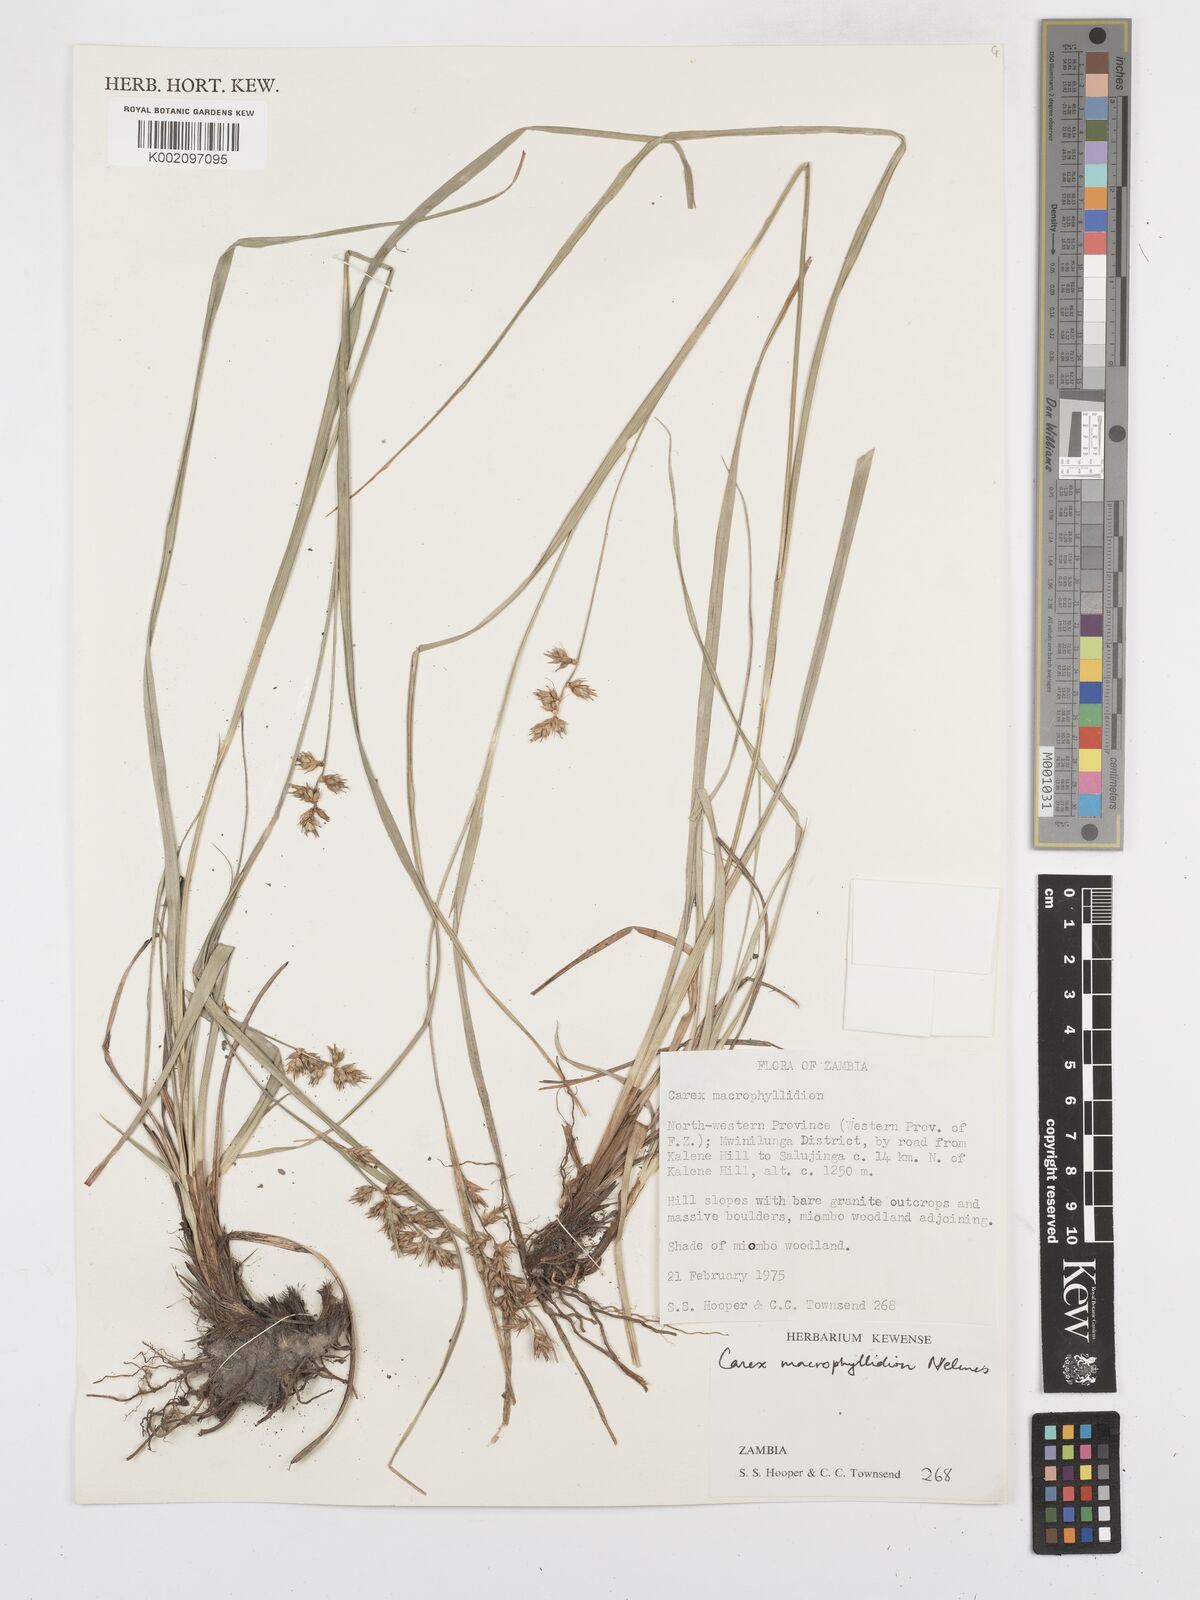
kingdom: Plantae
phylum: Tracheophyta
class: Liliopsida
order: Poales
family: Cyperaceae
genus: Carex
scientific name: Carex macrophyllidion
